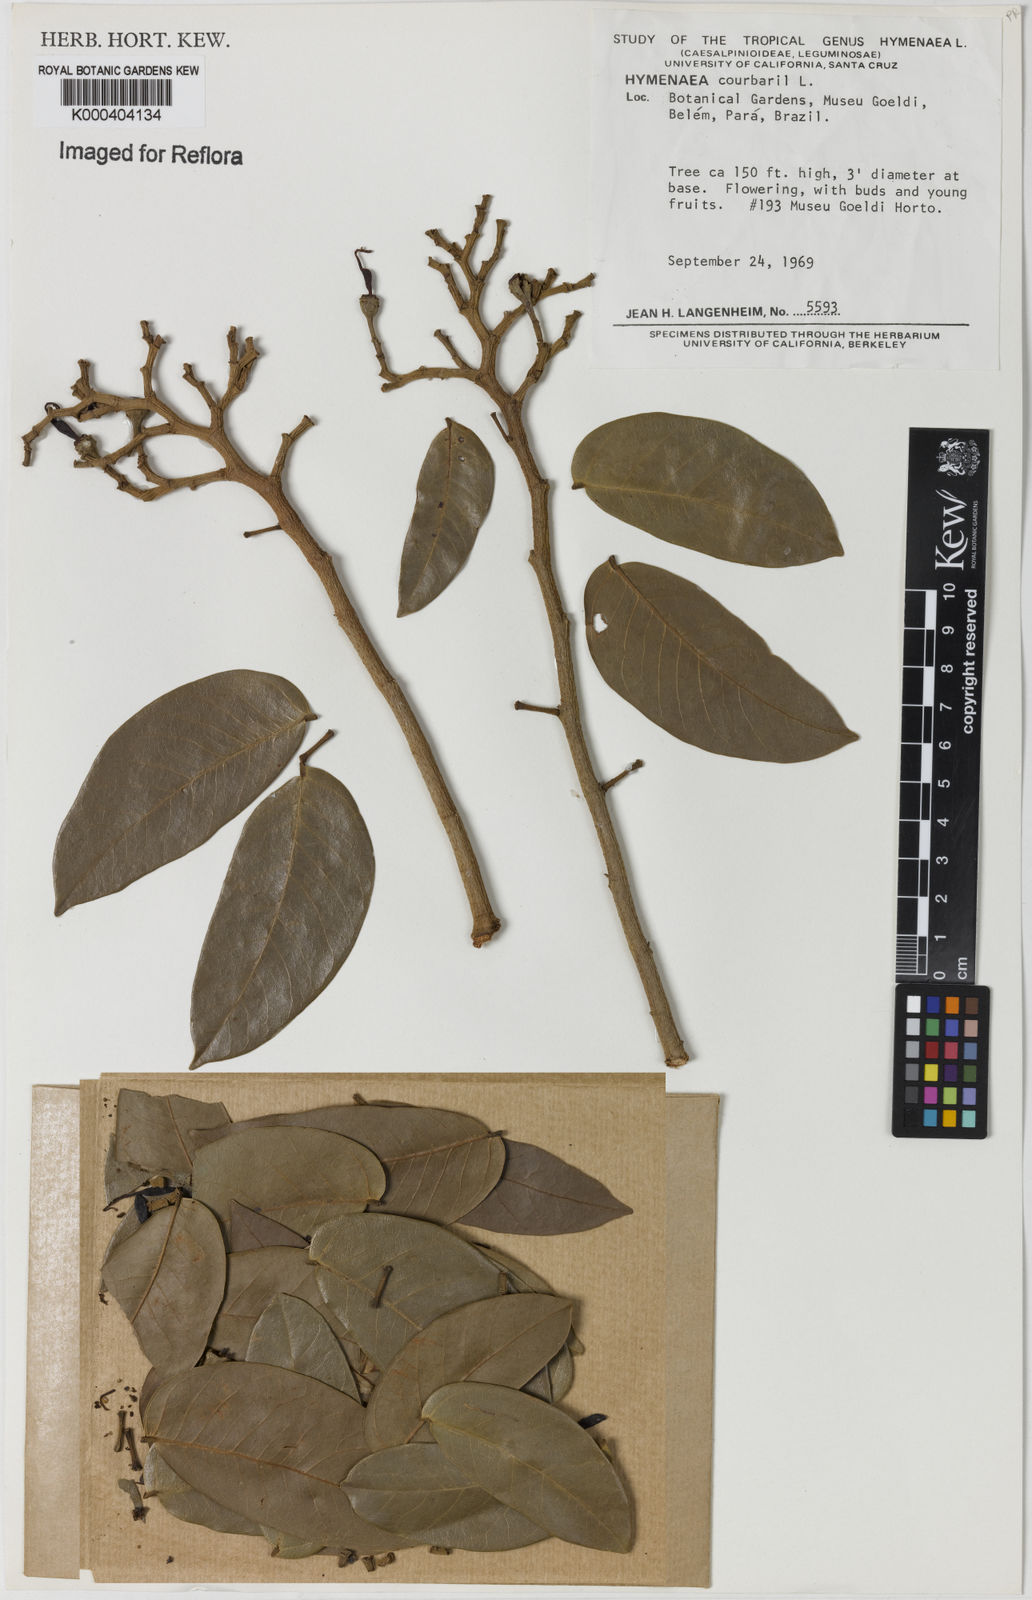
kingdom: Plantae
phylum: Tracheophyta
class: Magnoliopsida
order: Fabales
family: Fabaceae
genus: Hymenaea
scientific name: Hymenaea courbaril
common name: Brazilian copal
